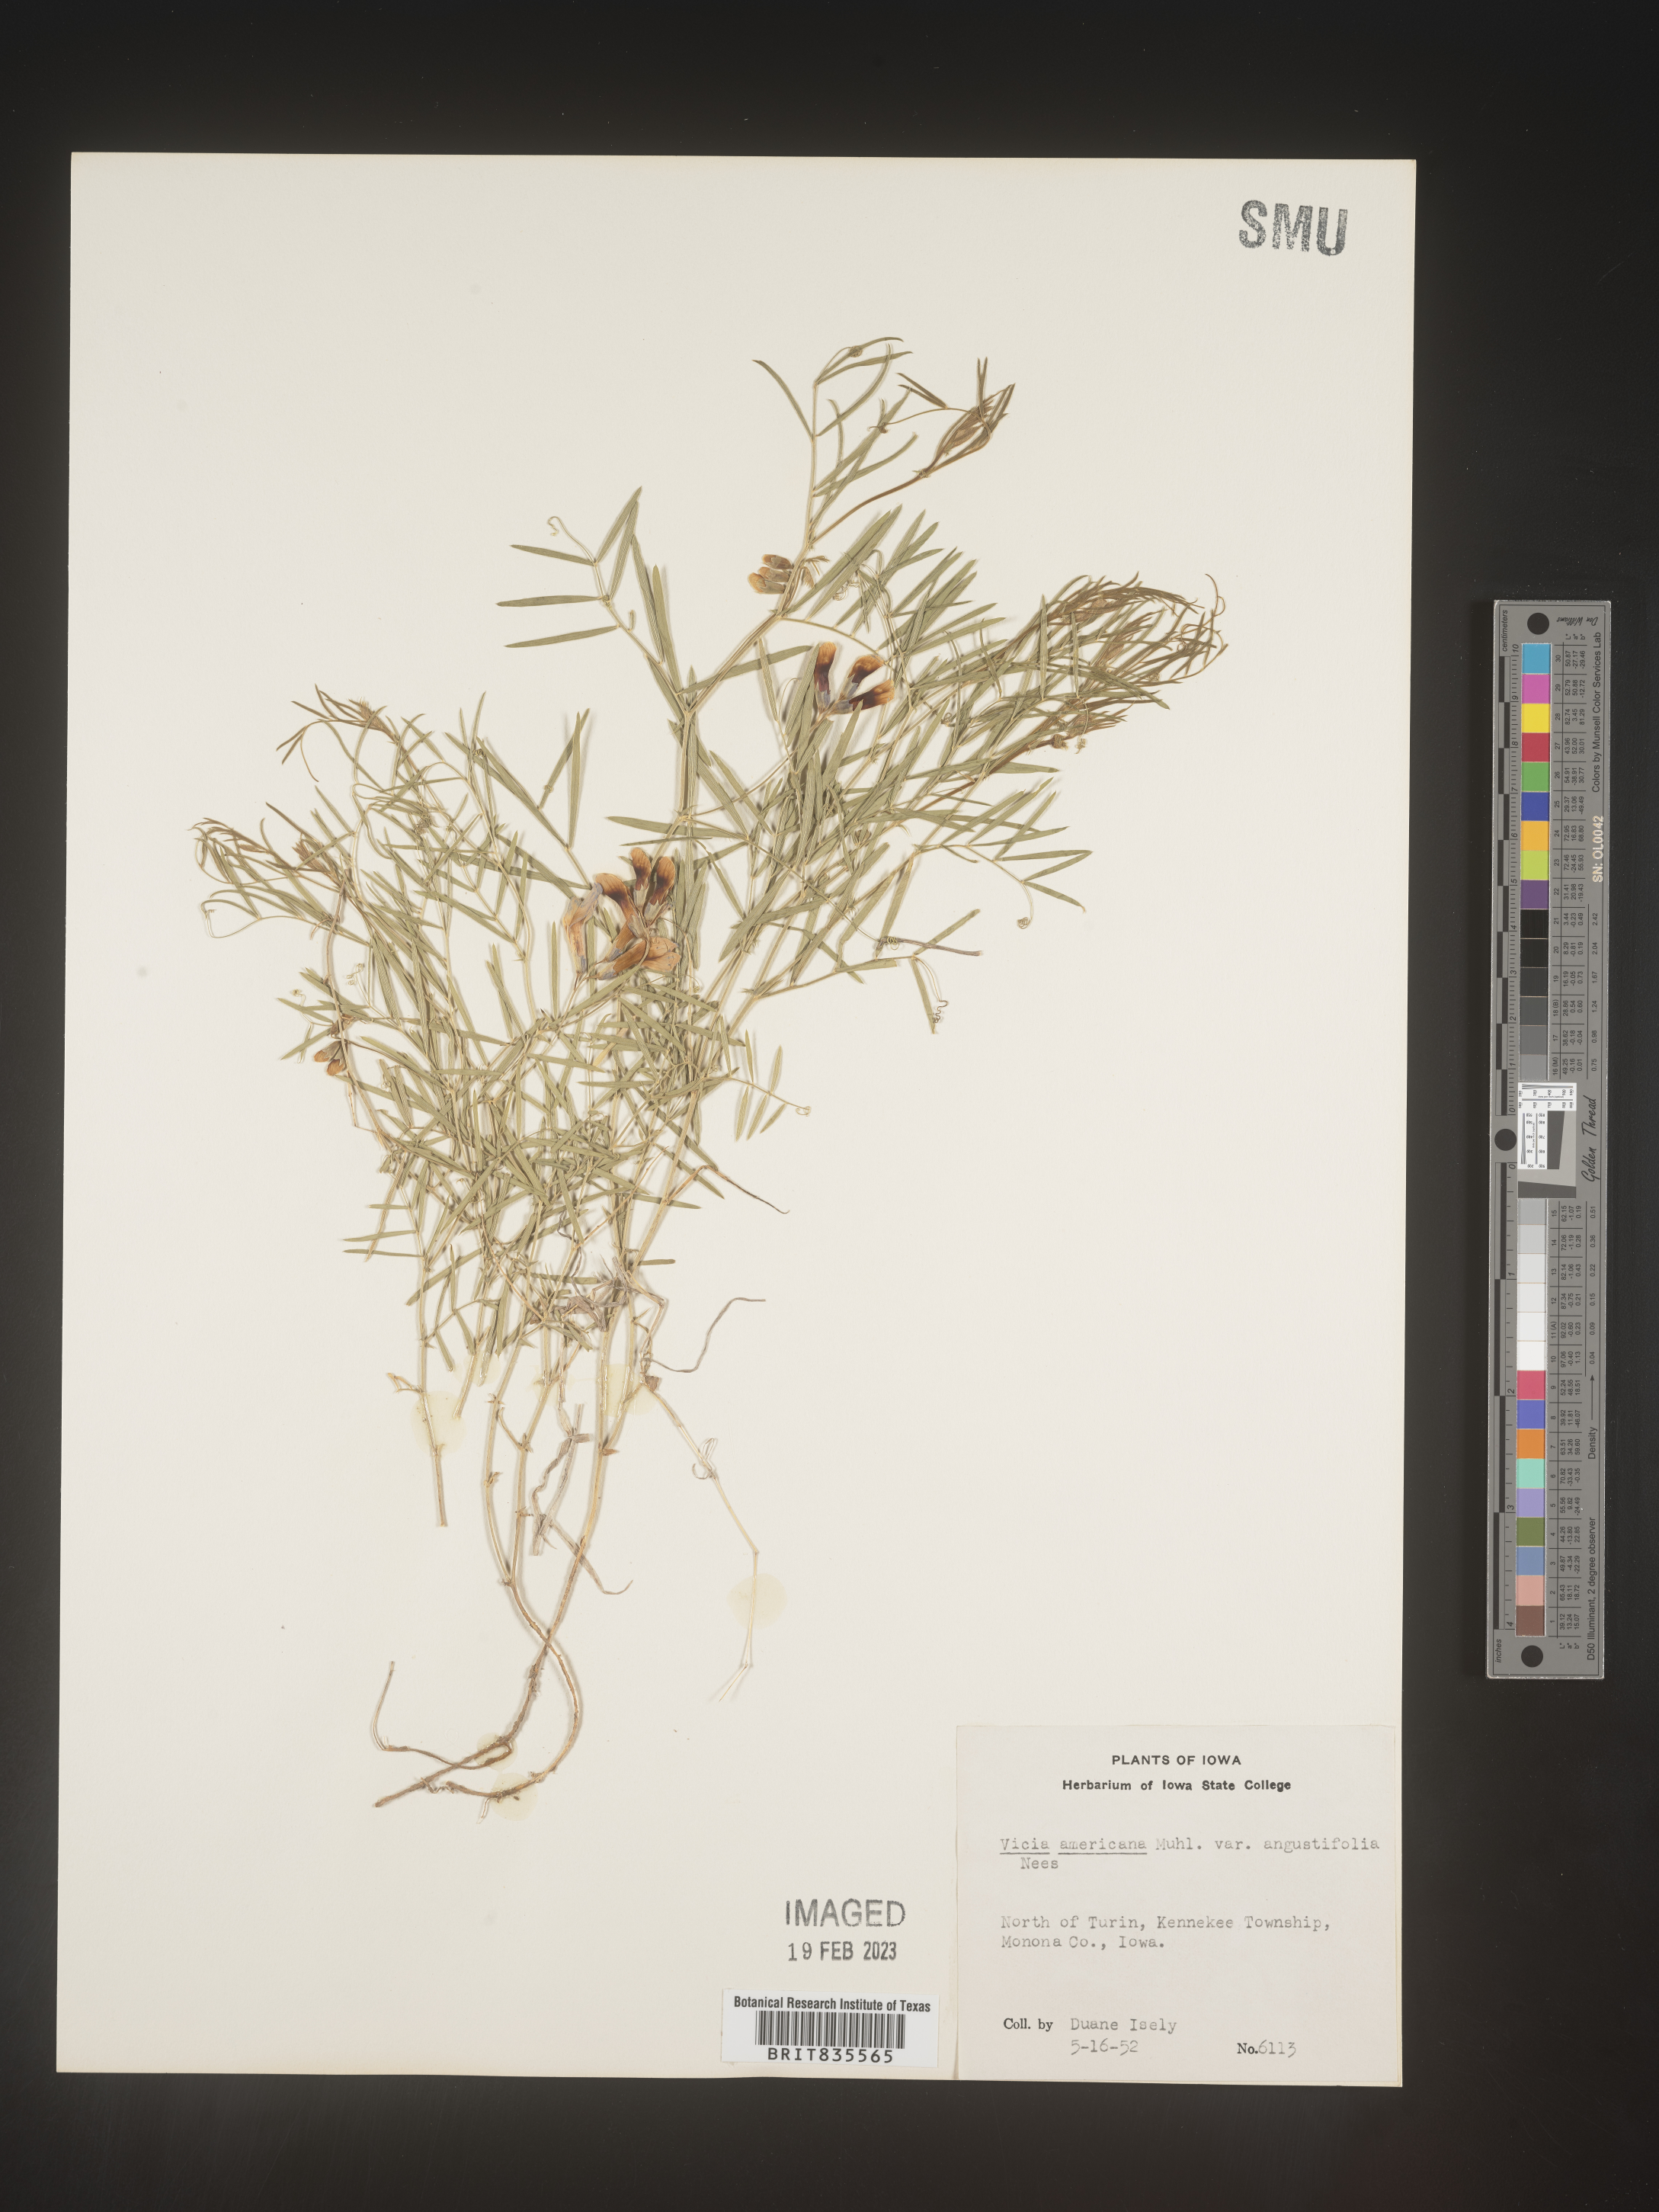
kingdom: Plantae
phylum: Tracheophyta
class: Magnoliopsida
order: Fabales
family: Fabaceae
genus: Vicia
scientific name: Vicia americana
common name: American vetch
